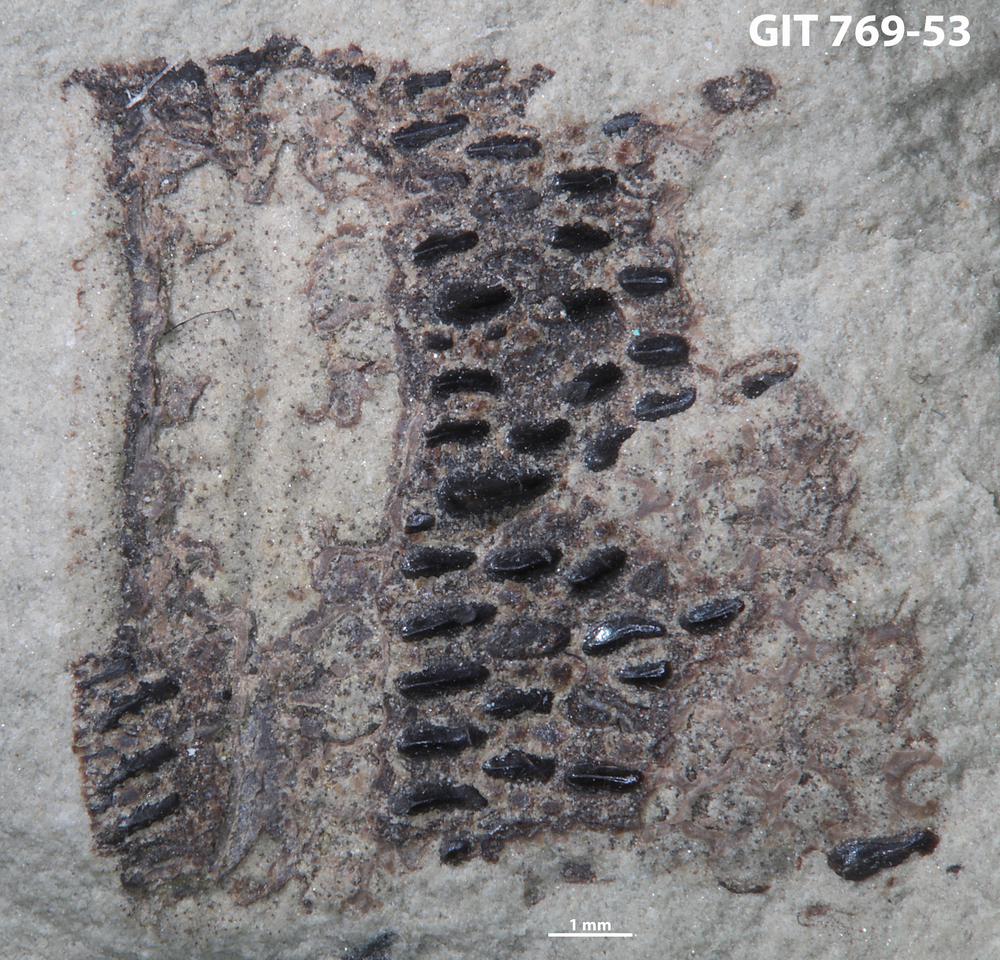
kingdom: Animalia
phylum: Chordata
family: Dartmuthiidae
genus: Dartmuthia
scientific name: Dartmuthia
